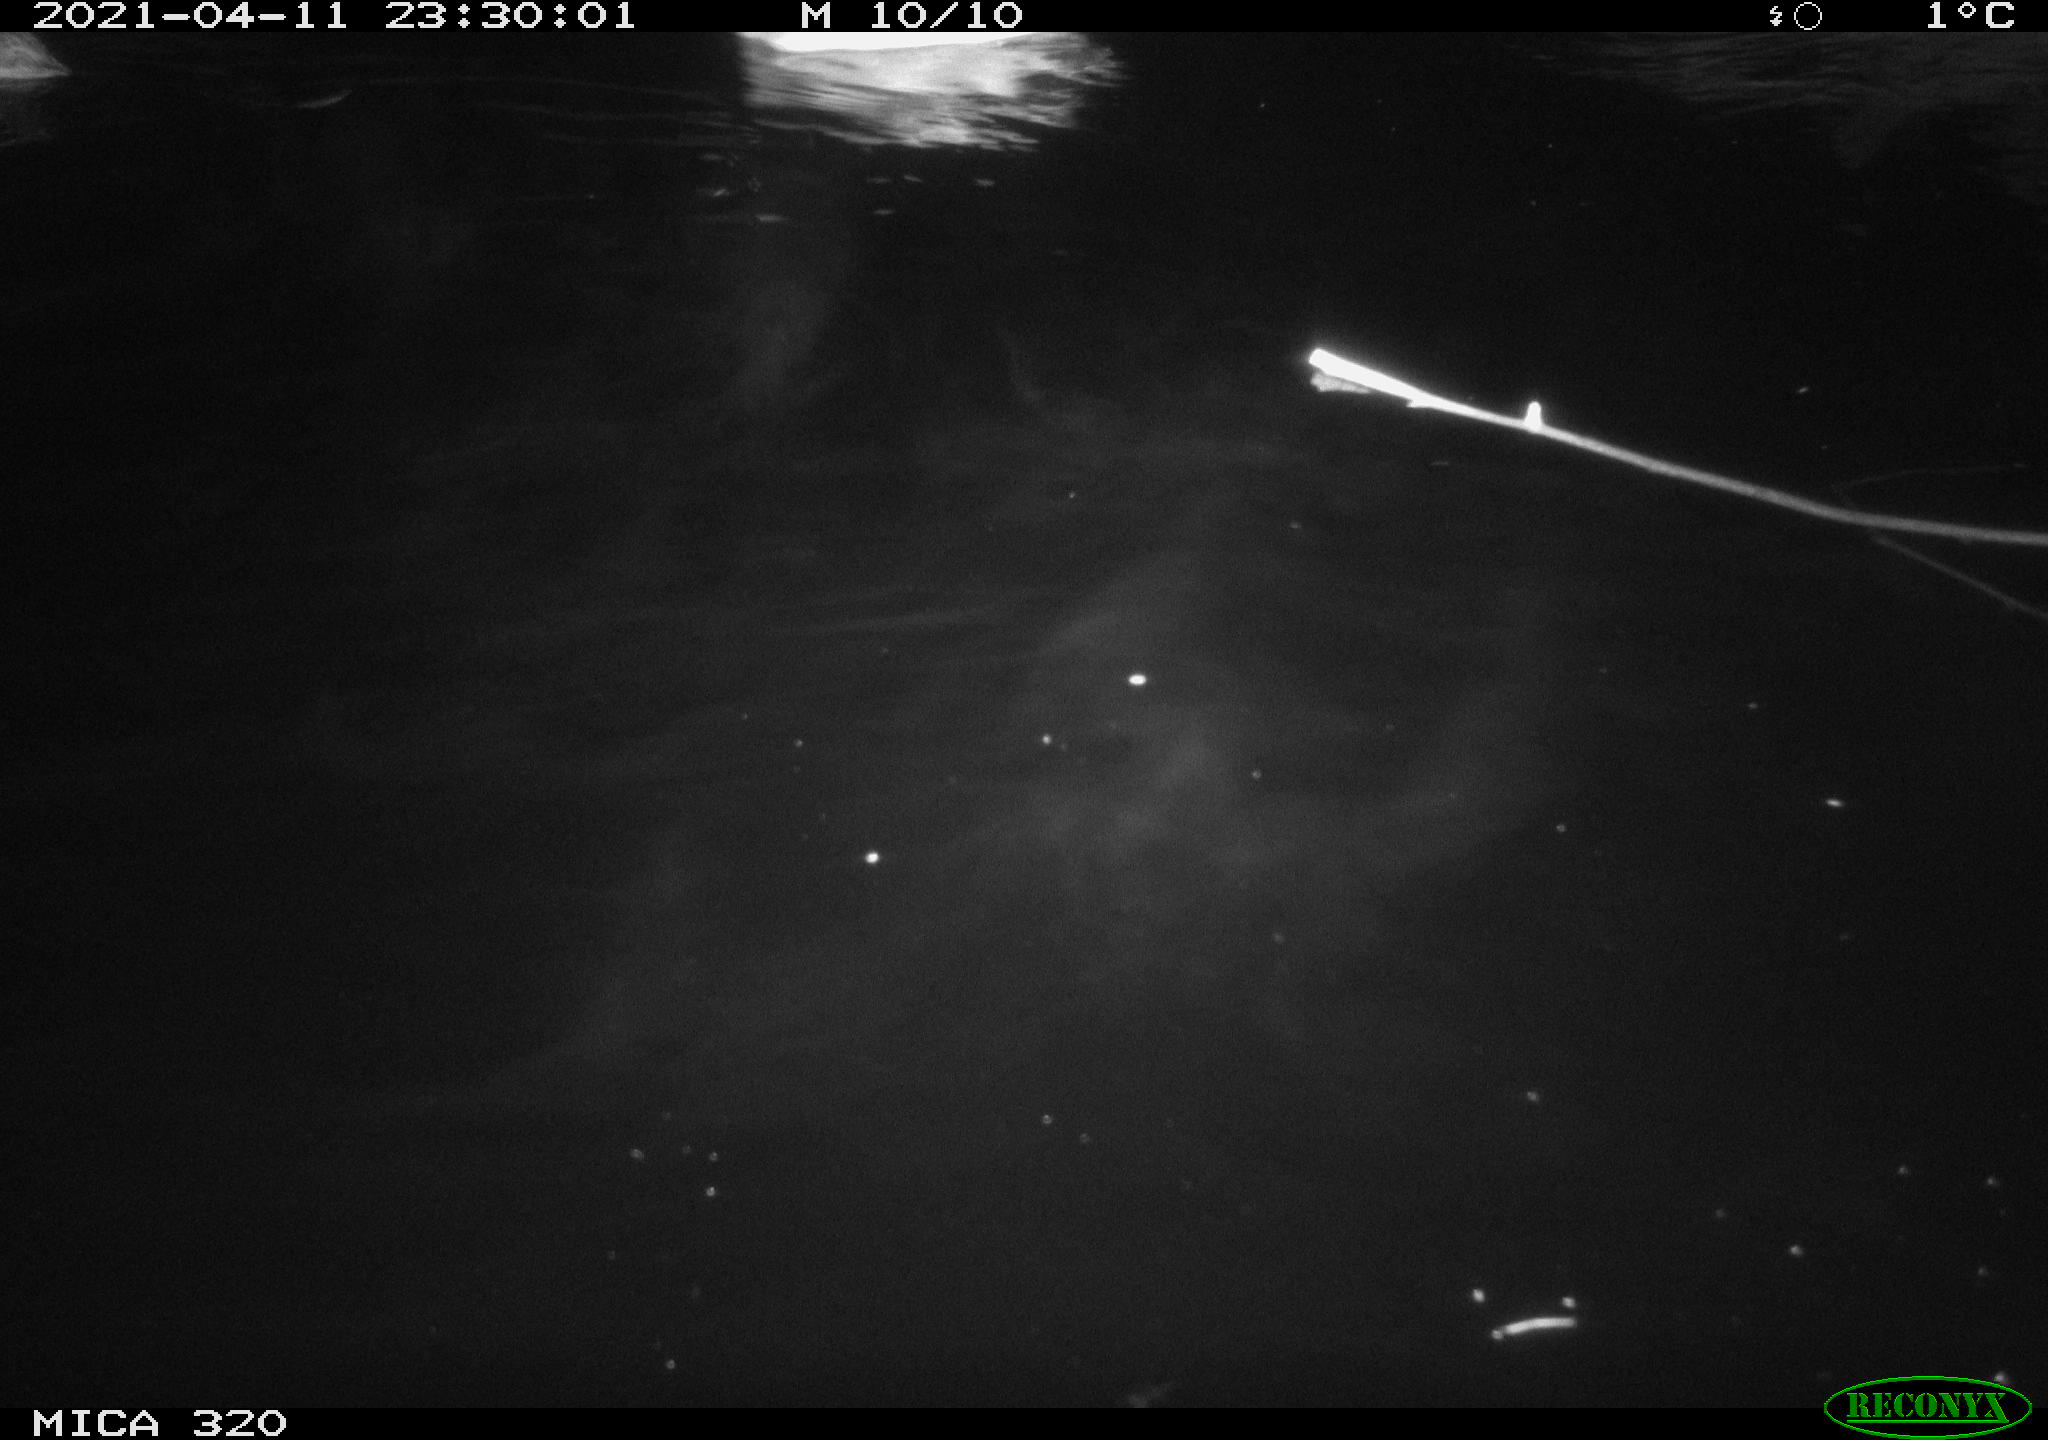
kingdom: Animalia
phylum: Chordata
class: Aves
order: Anseriformes
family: Anatidae
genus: Anas
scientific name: Anas platyrhynchos
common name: Mallard
